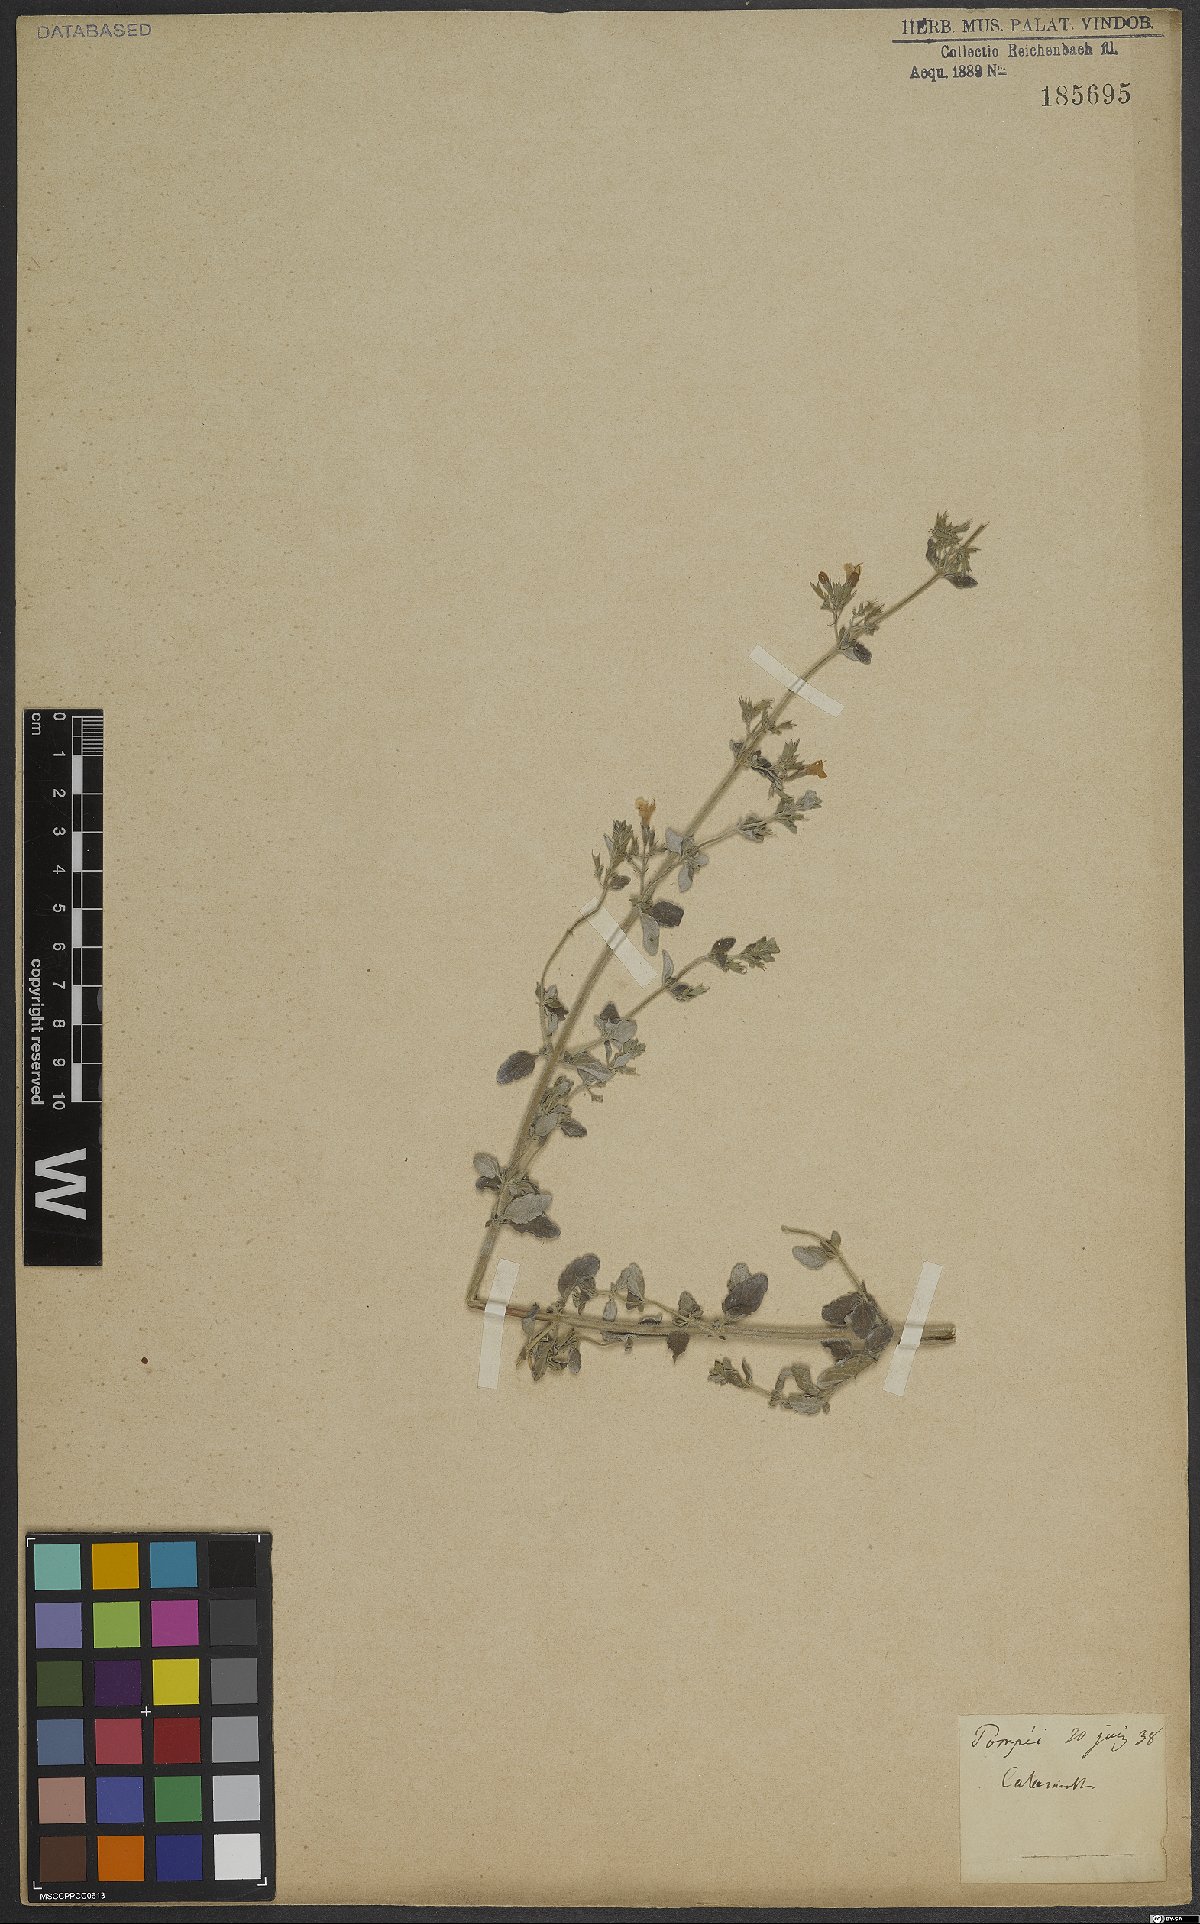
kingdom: Plantae
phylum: Tracheophyta
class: Magnoliopsida
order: Lamiales
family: Lamiaceae
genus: Calamintha
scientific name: Calamintha
